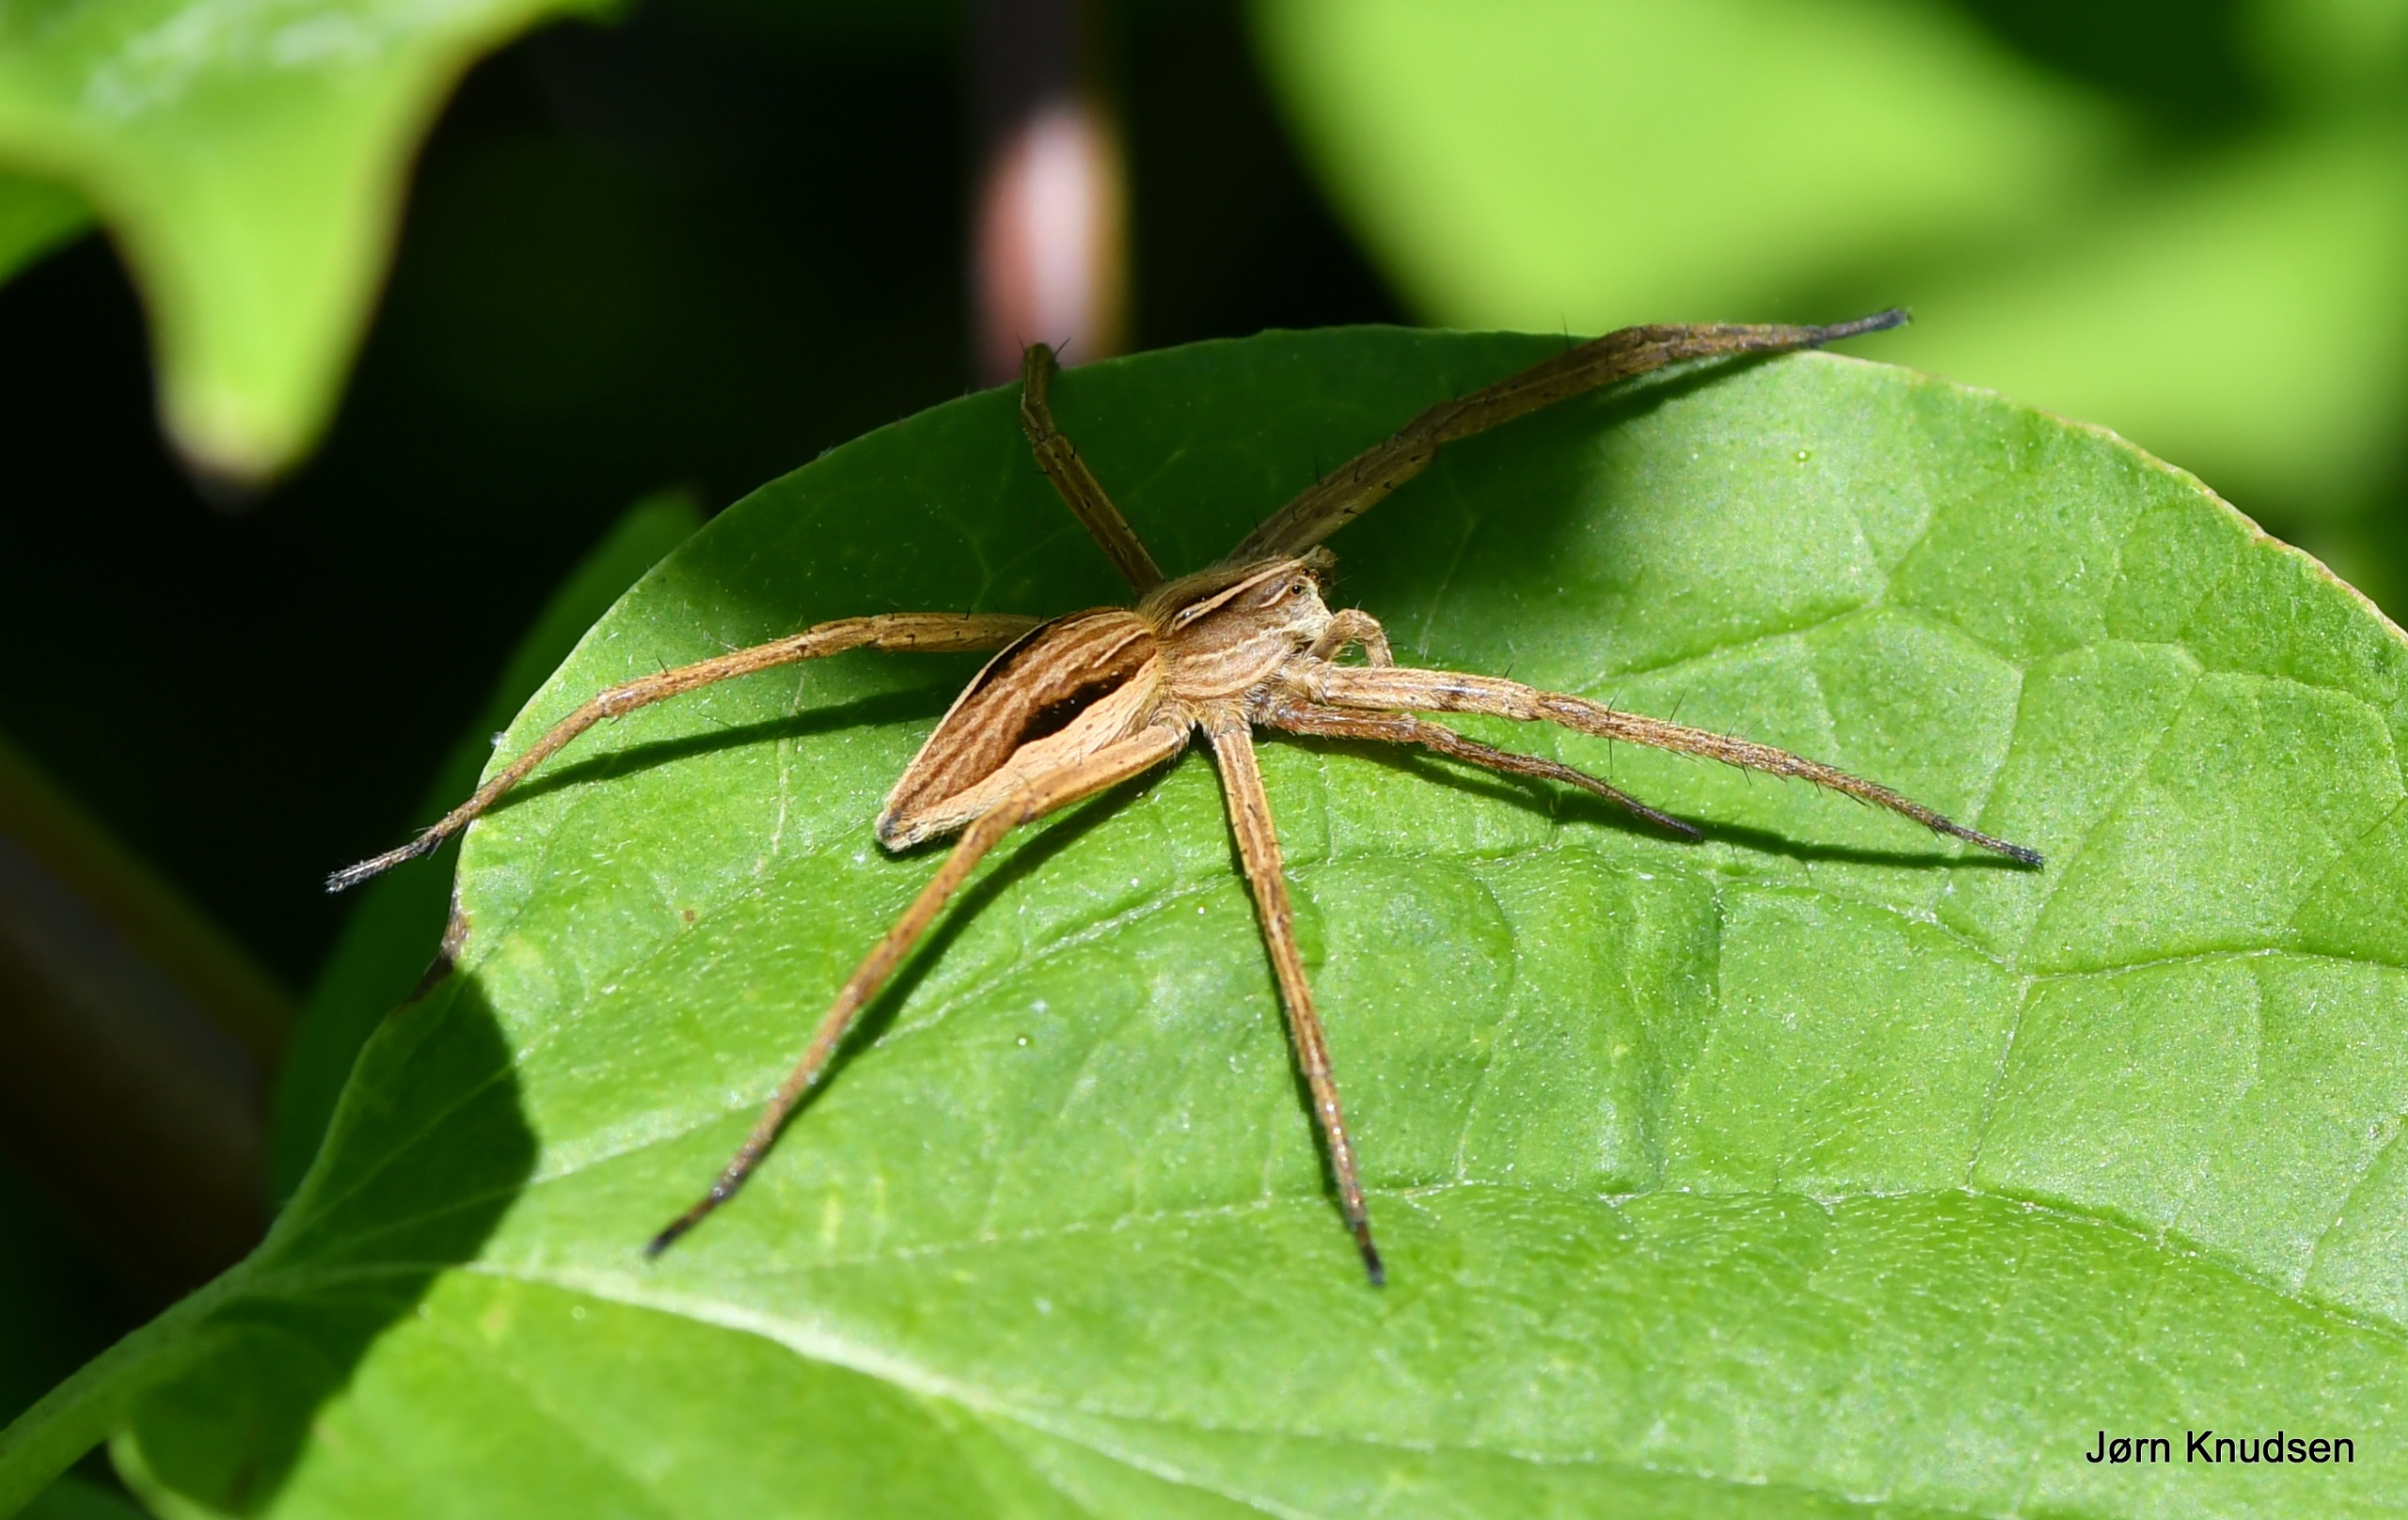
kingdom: Animalia
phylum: Arthropoda
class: Arachnida
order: Araneae
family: Pisauridae
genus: Pisaura
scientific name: Pisaura mirabilis
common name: Almindelig rovedderkop
